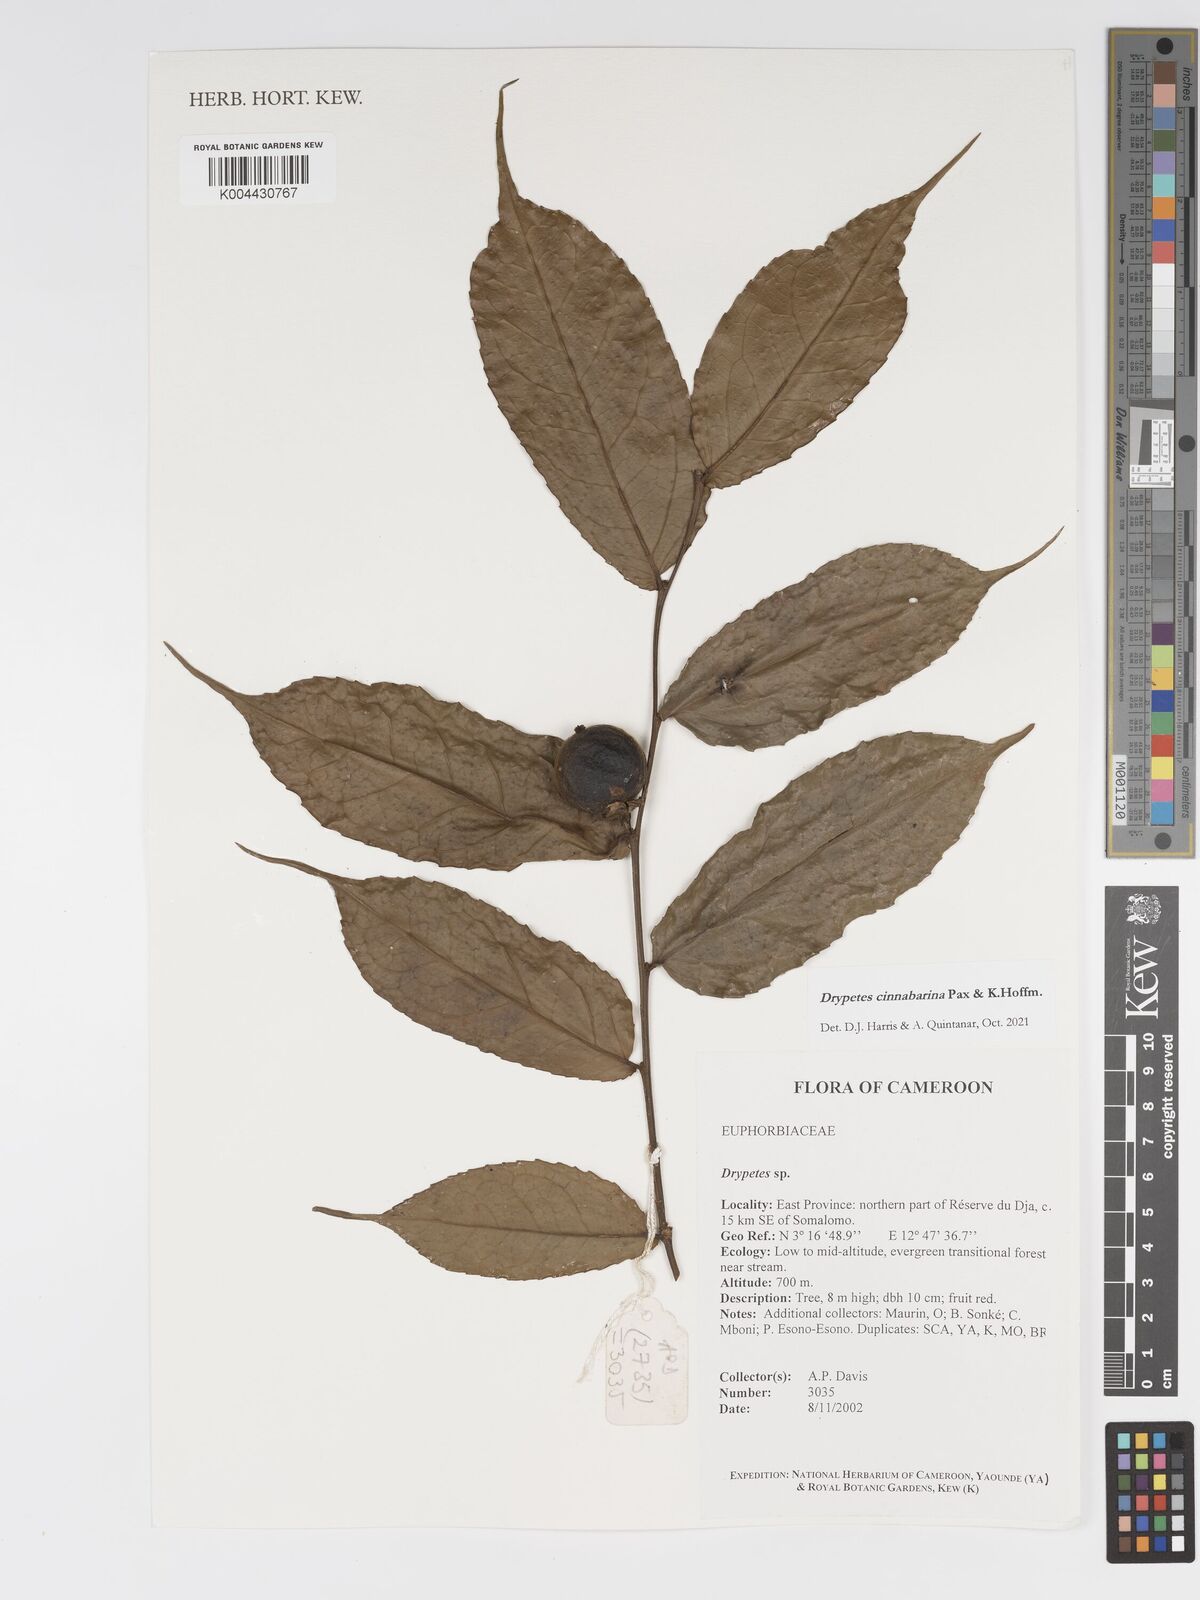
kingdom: Plantae
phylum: Tracheophyta
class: Magnoliopsida
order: Malpighiales
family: Putranjivaceae
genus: Drypetes
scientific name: Drypetes cinnabarina
